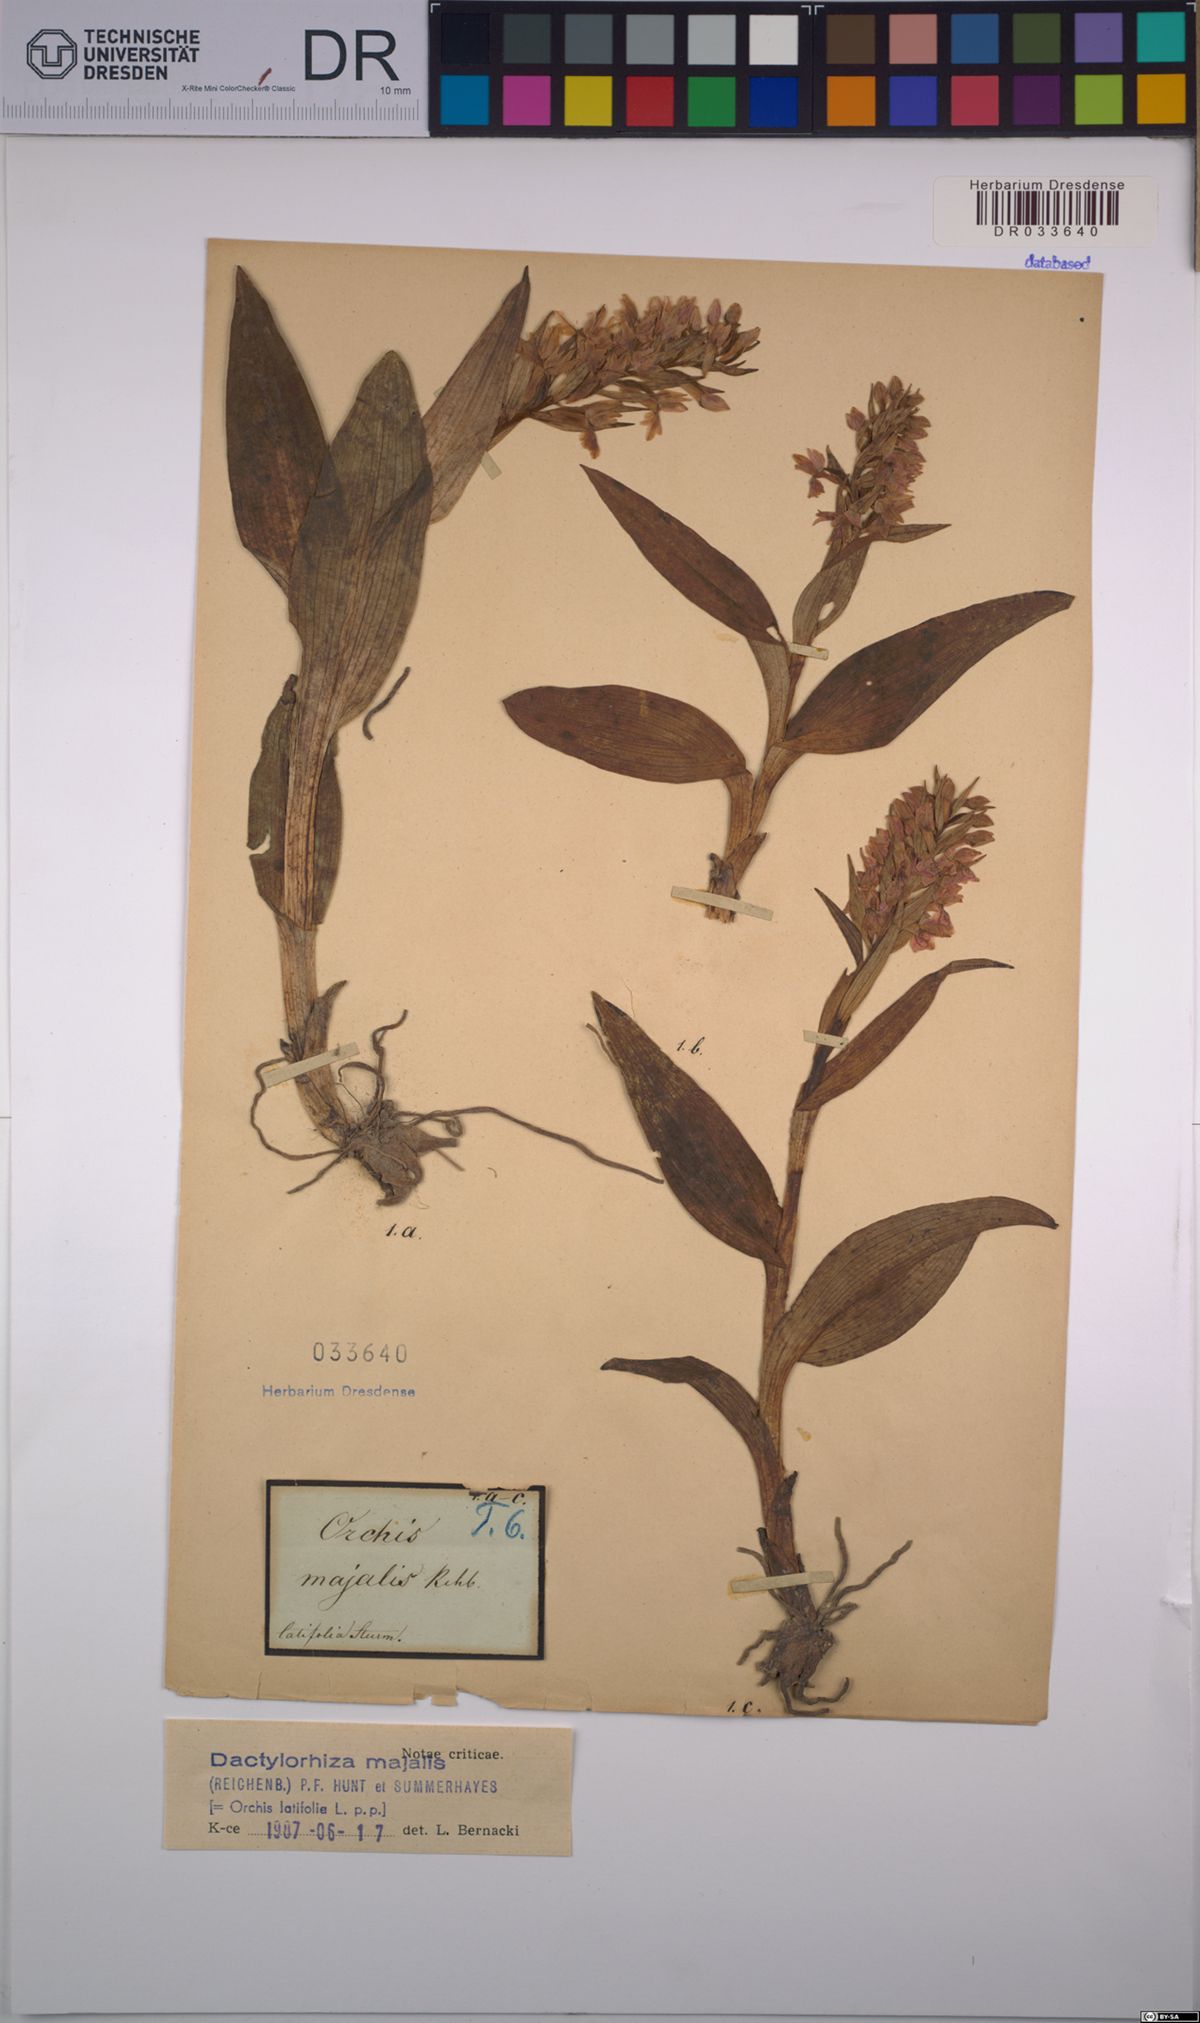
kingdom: Plantae
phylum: Tracheophyta
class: Liliopsida
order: Asparagales
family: Orchidaceae
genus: Dactylorhiza
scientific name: Dactylorhiza majalis
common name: Marsh orchid
